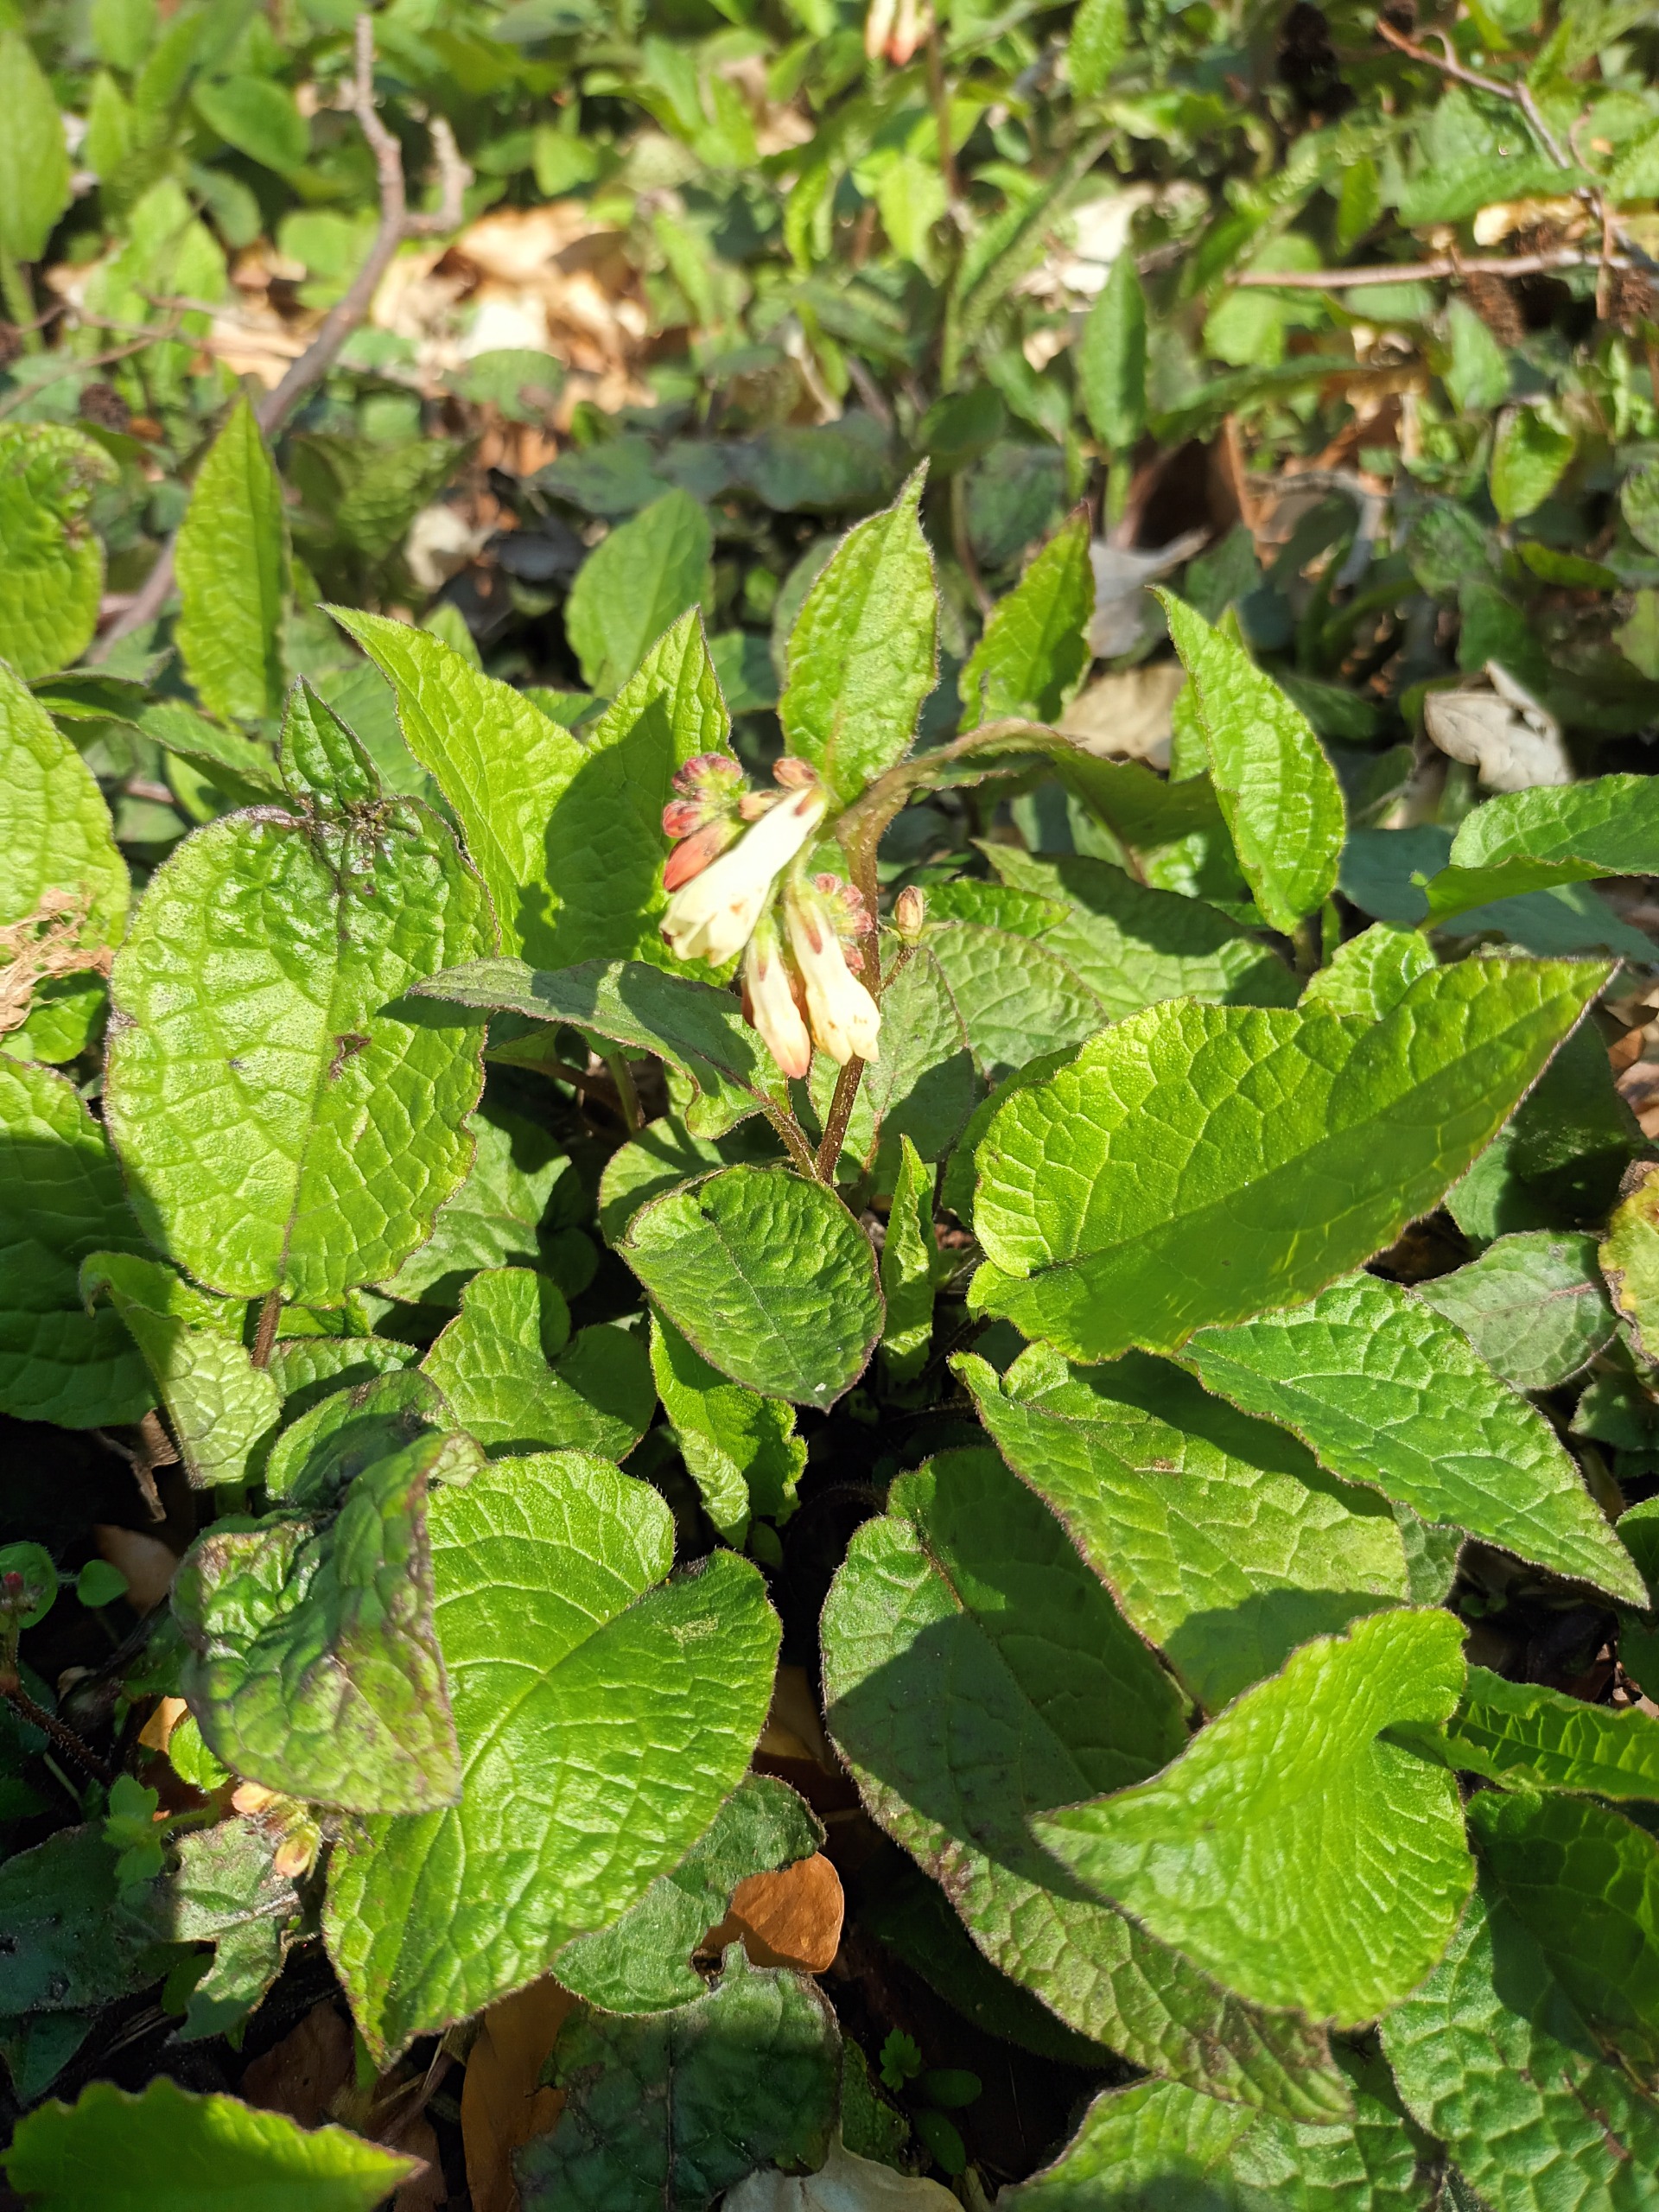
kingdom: Plantae
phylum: Tracheophyta
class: Magnoliopsida
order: Boraginales
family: Boraginaceae
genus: Symphytum
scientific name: Symphytum tuberosum
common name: Knoldet kulsukker
